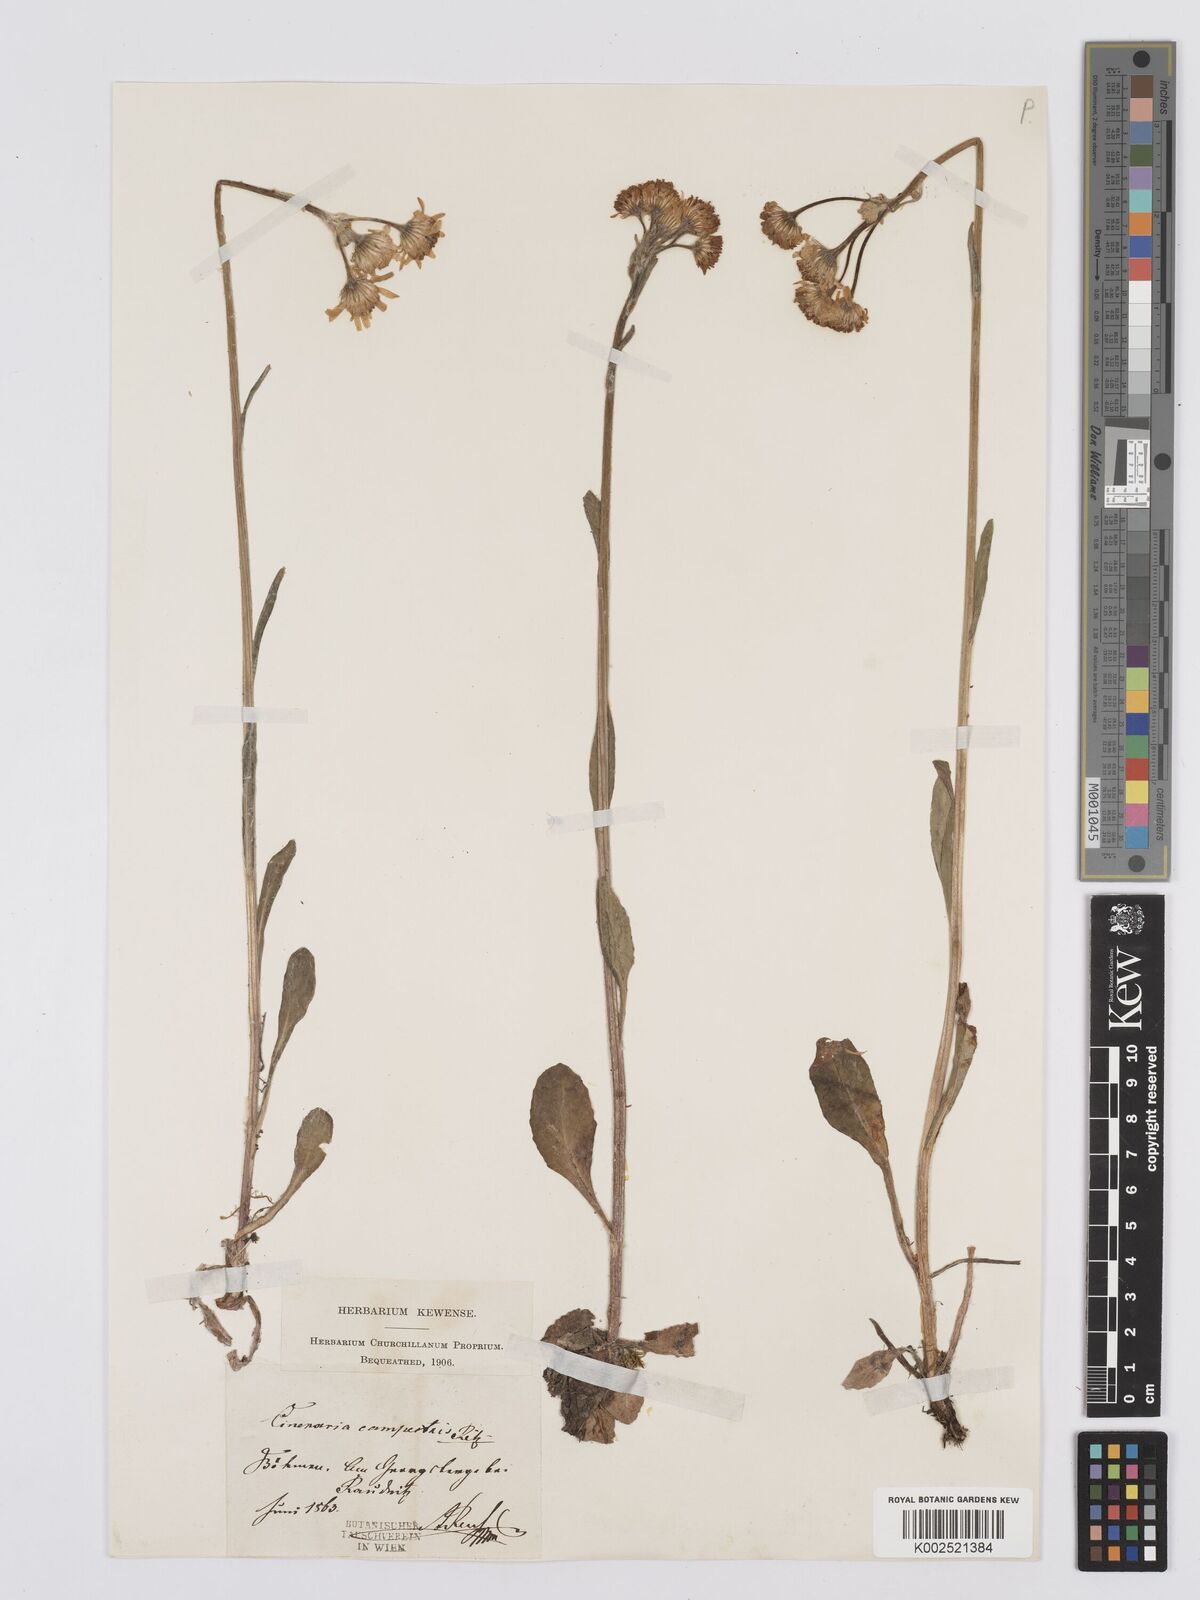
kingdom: Plantae
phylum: Tracheophyta
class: Magnoliopsida
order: Asterales
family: Asteraceae
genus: Tephroseris
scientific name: Tephroseris integrifolia
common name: Field fleawort
